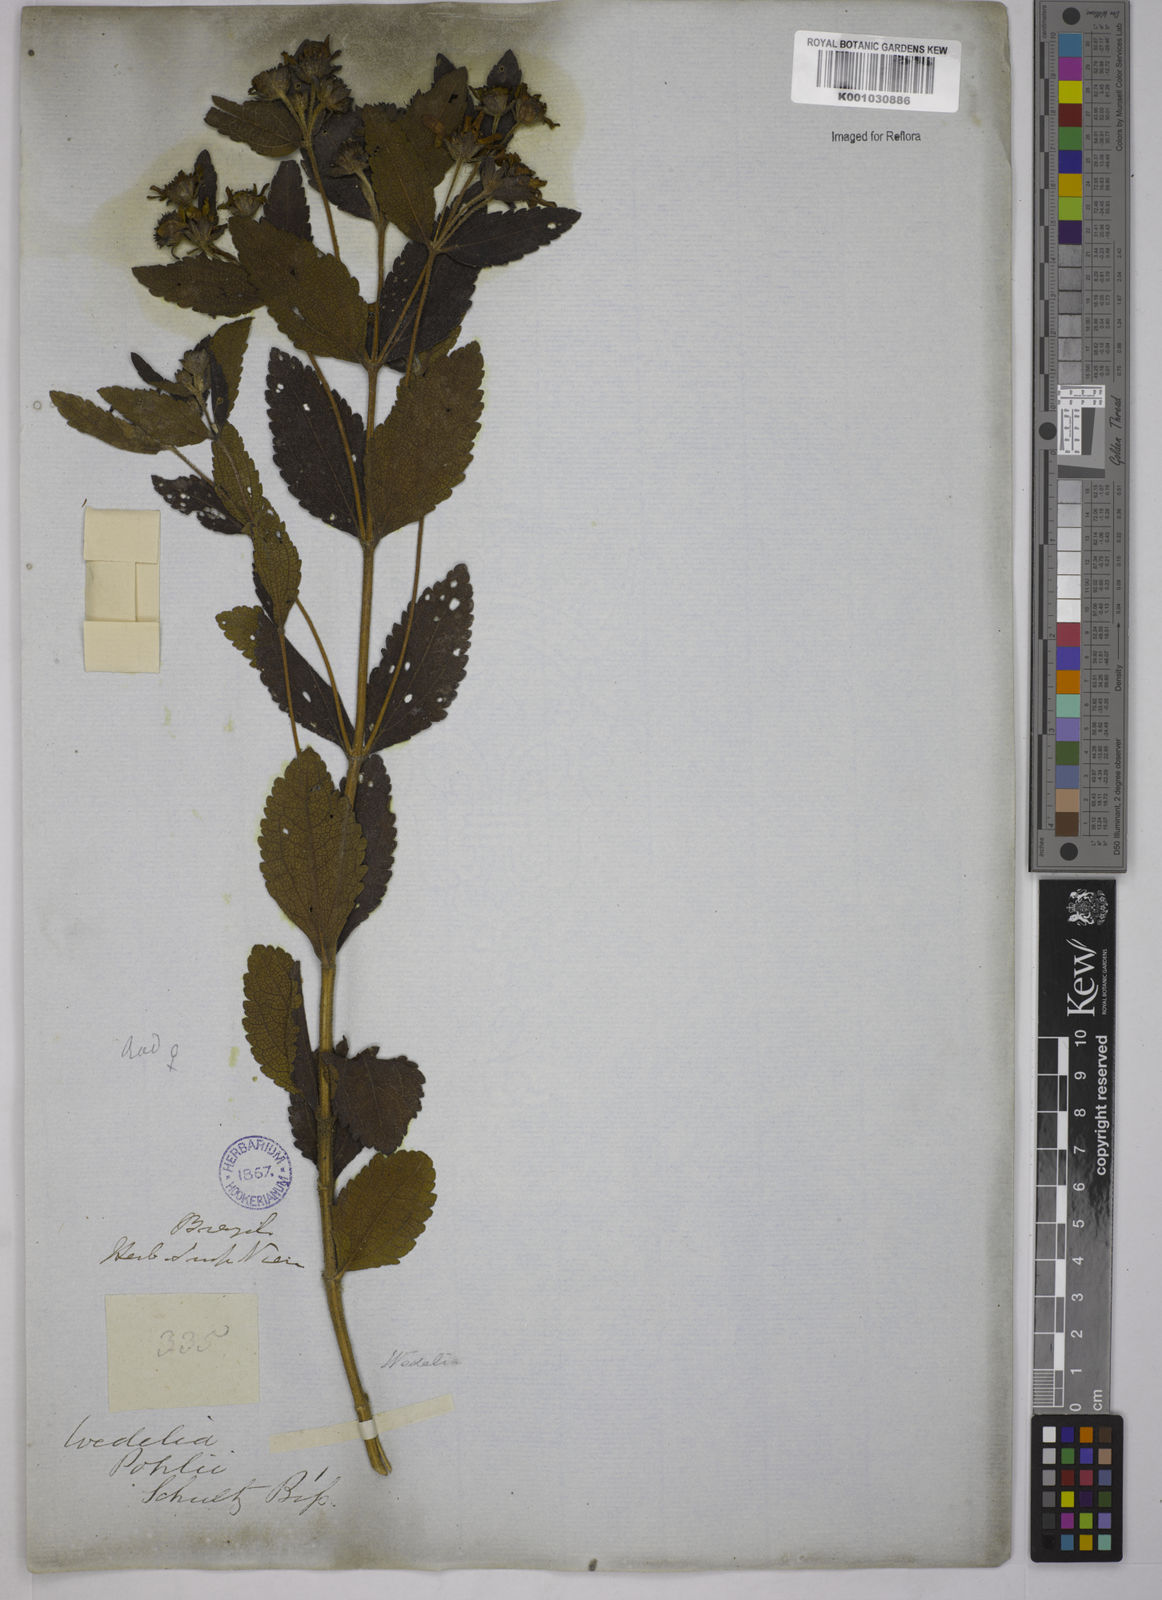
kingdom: Plantae
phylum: Tracheophyta
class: Magnoliopsida
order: Asterales
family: Asteraceae
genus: Wedelia
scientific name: Wedelia vauthieri
